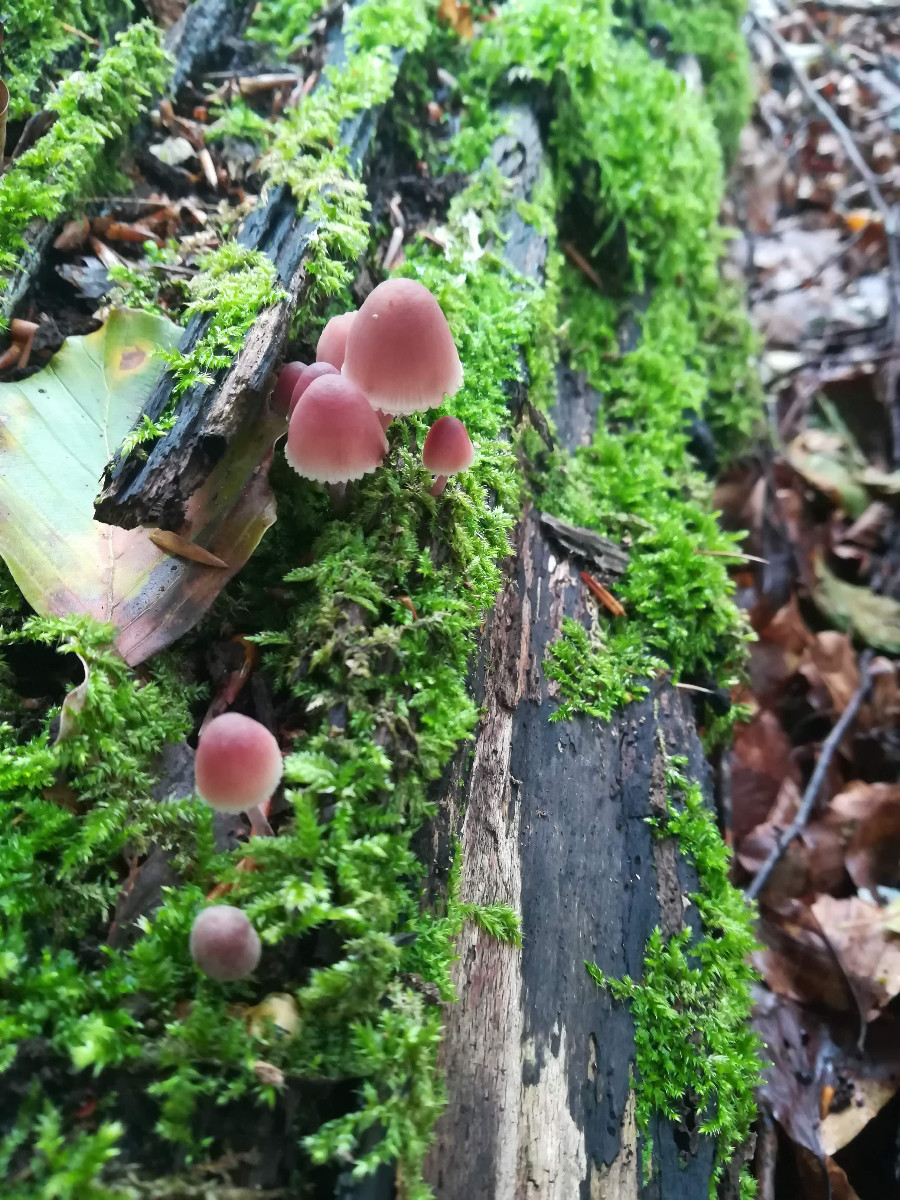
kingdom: Fungi
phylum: Basidiomycota
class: Agaricomycetes
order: Agaricales
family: Mycenaceae
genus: Mycena
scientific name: Mycena haematopus
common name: blødende huesvamp
